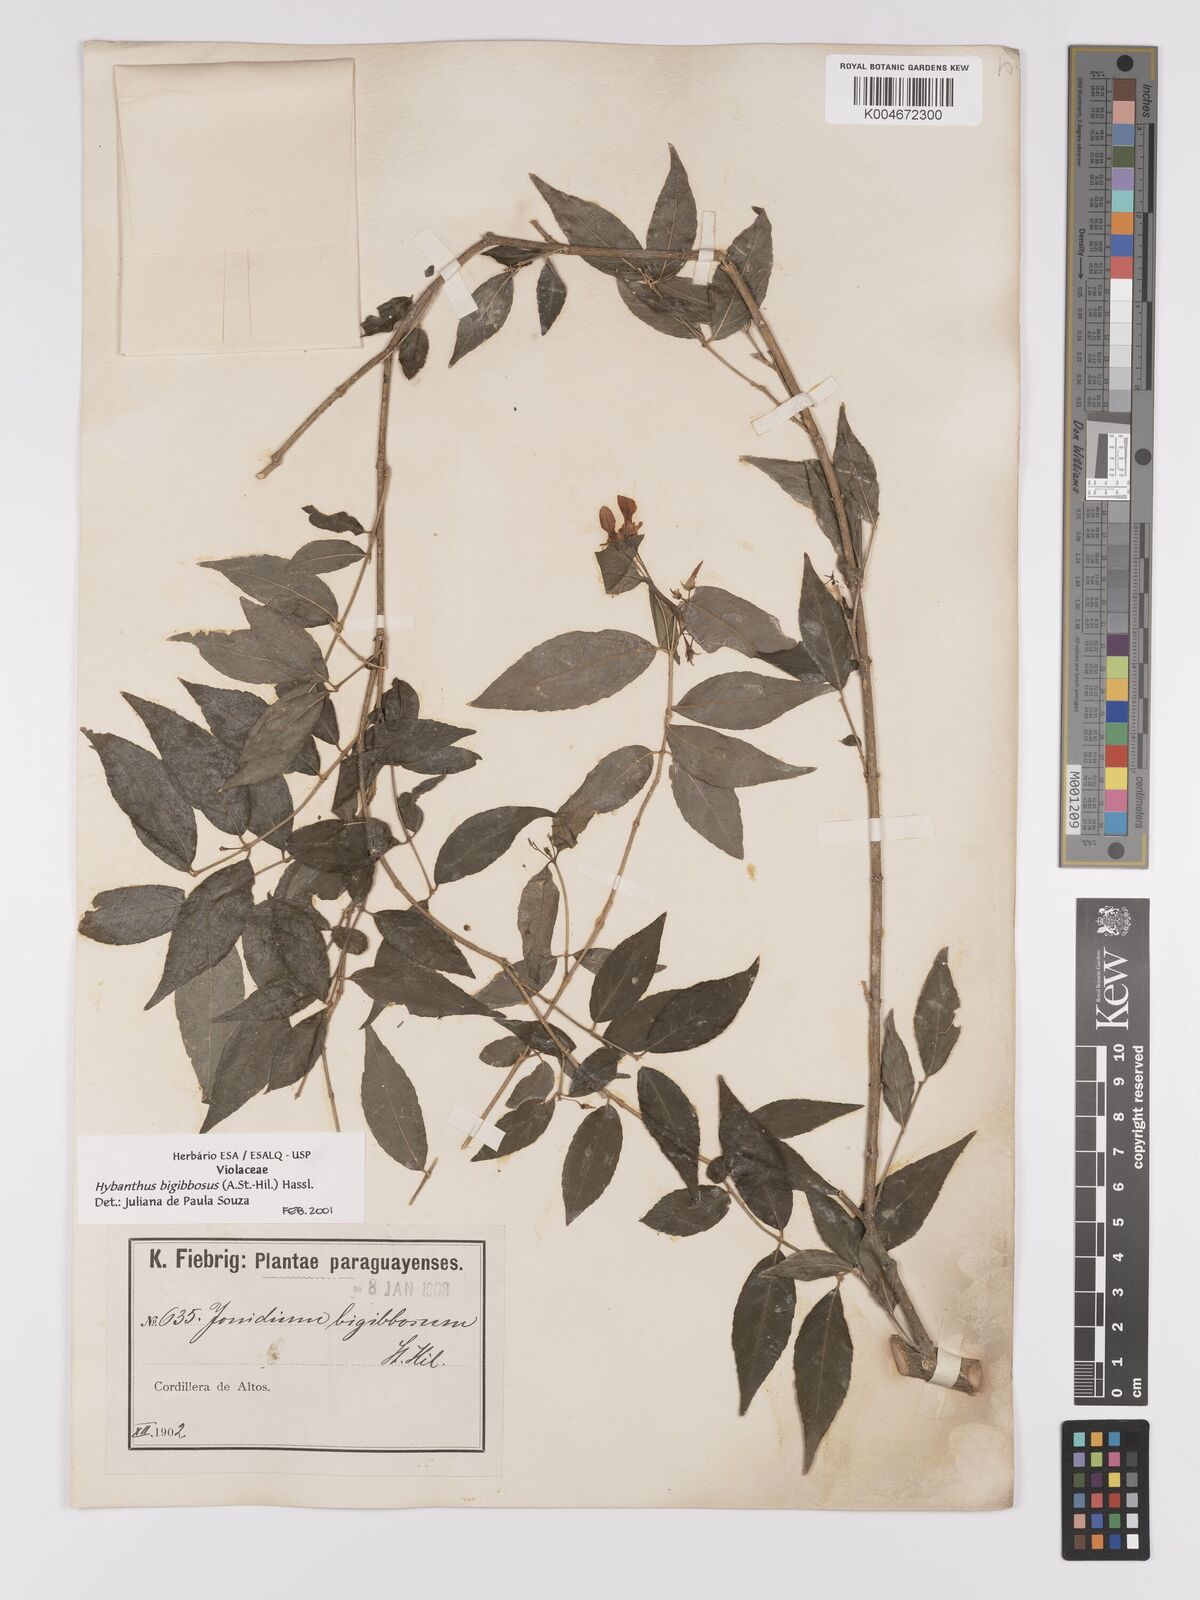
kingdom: Plantae
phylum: Tracheophyta
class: Magnoliopsida
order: Malpighiales
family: Violaceae
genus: Pombalia
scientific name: Pombalia bigibbosa
